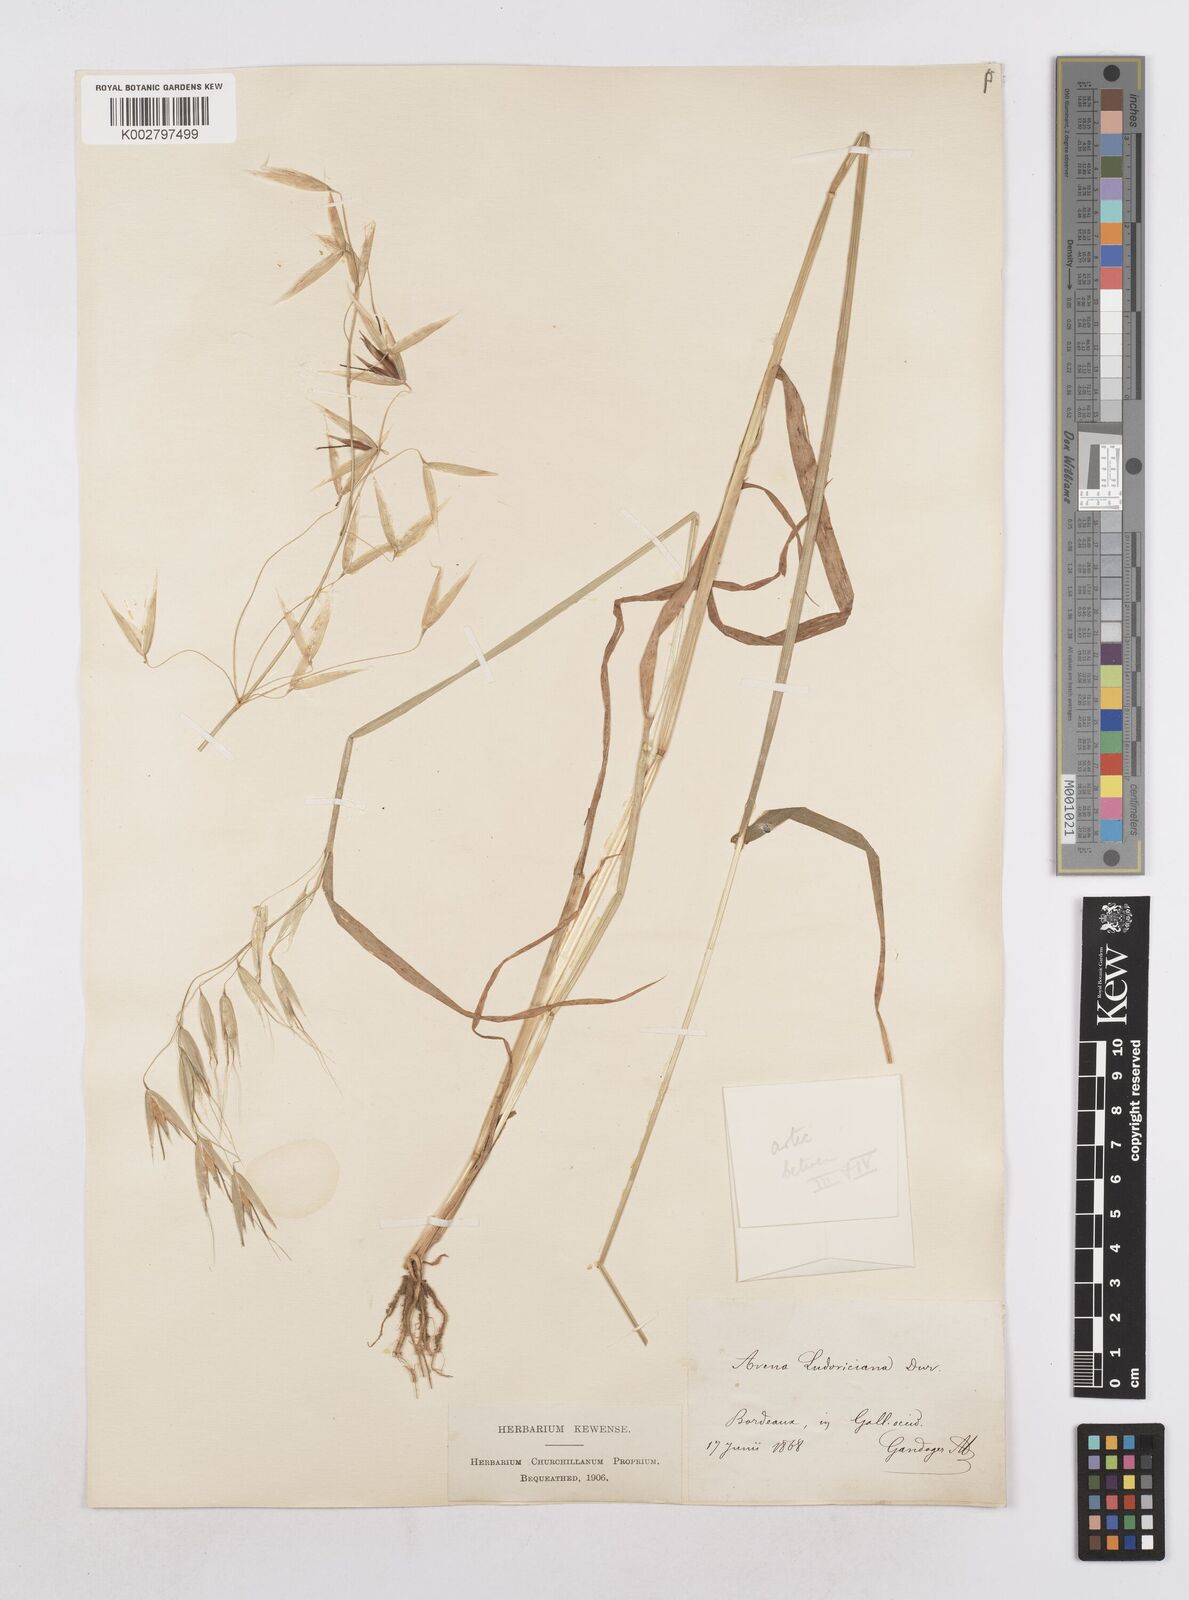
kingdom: Plantae
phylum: Tracheophyta
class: Liliopsida
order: Poales
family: Poaceae
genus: Avena
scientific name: Avena fatua
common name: Wild oat
